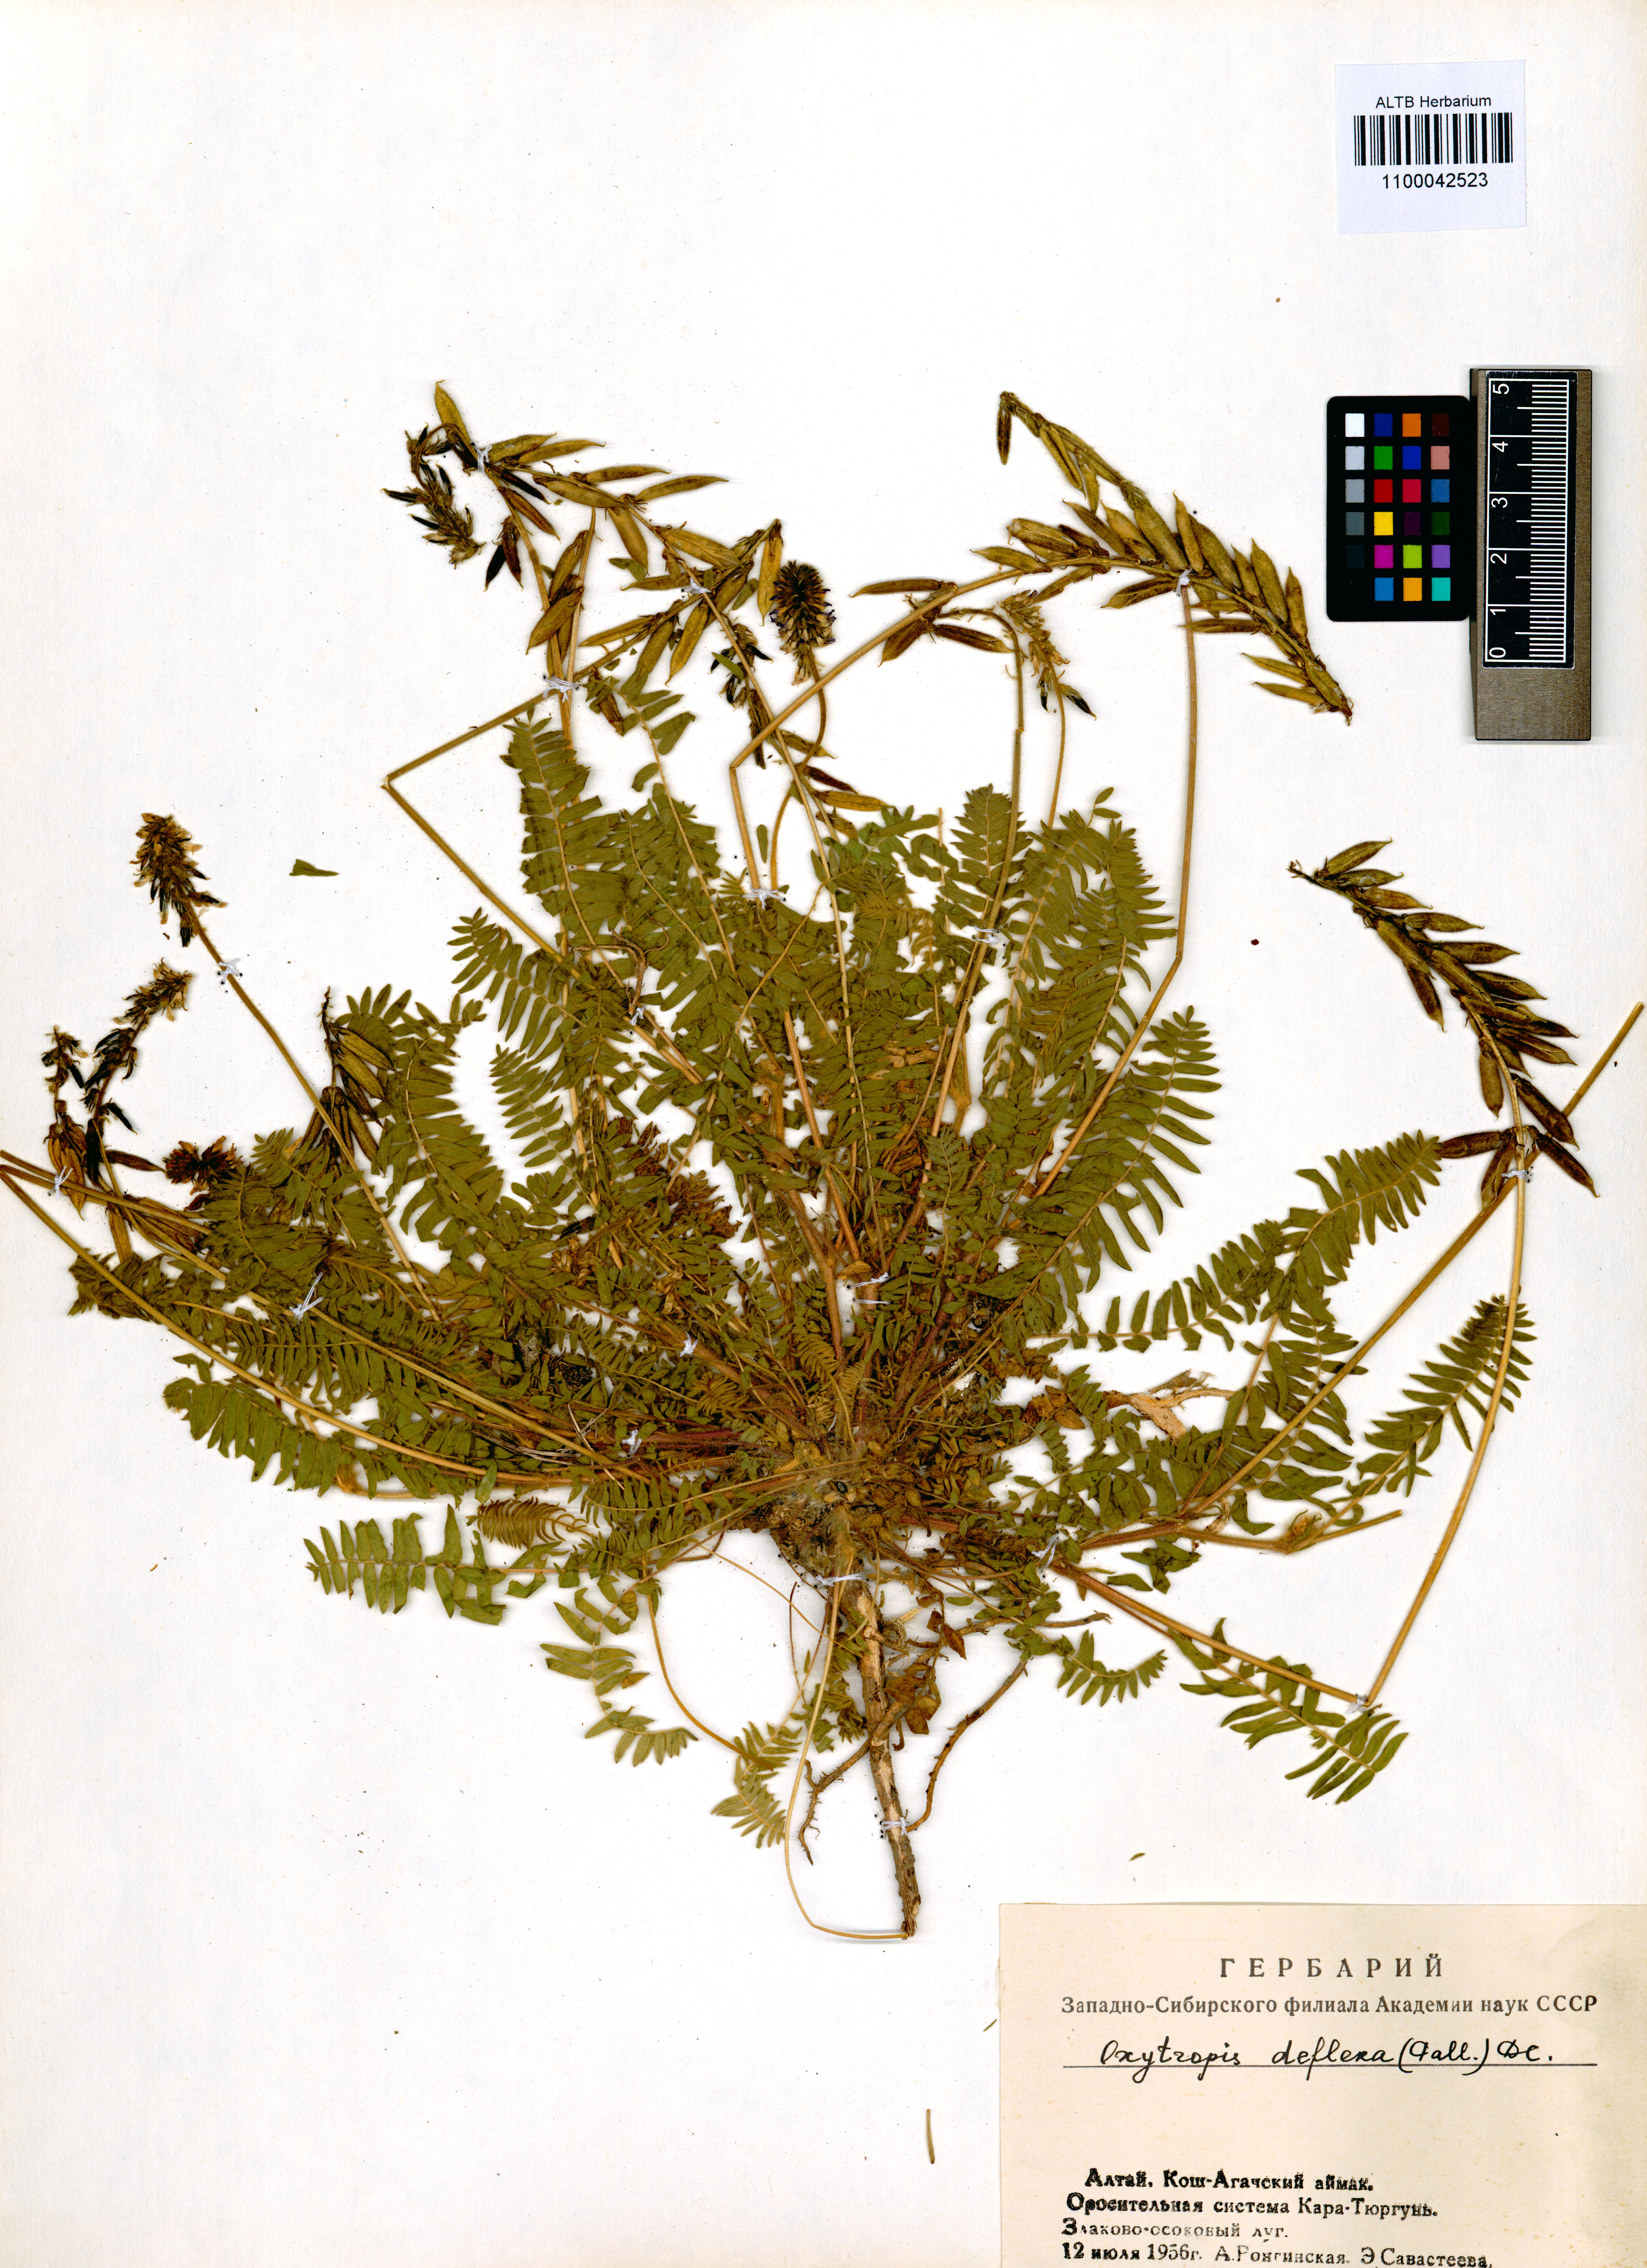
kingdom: Plantae
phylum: Tracheophyta
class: Magnoliopsida
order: Fabales
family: Fabaceae
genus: Oxytropis
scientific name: Oxytropis deflexa
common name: Stemmed oxytrope
